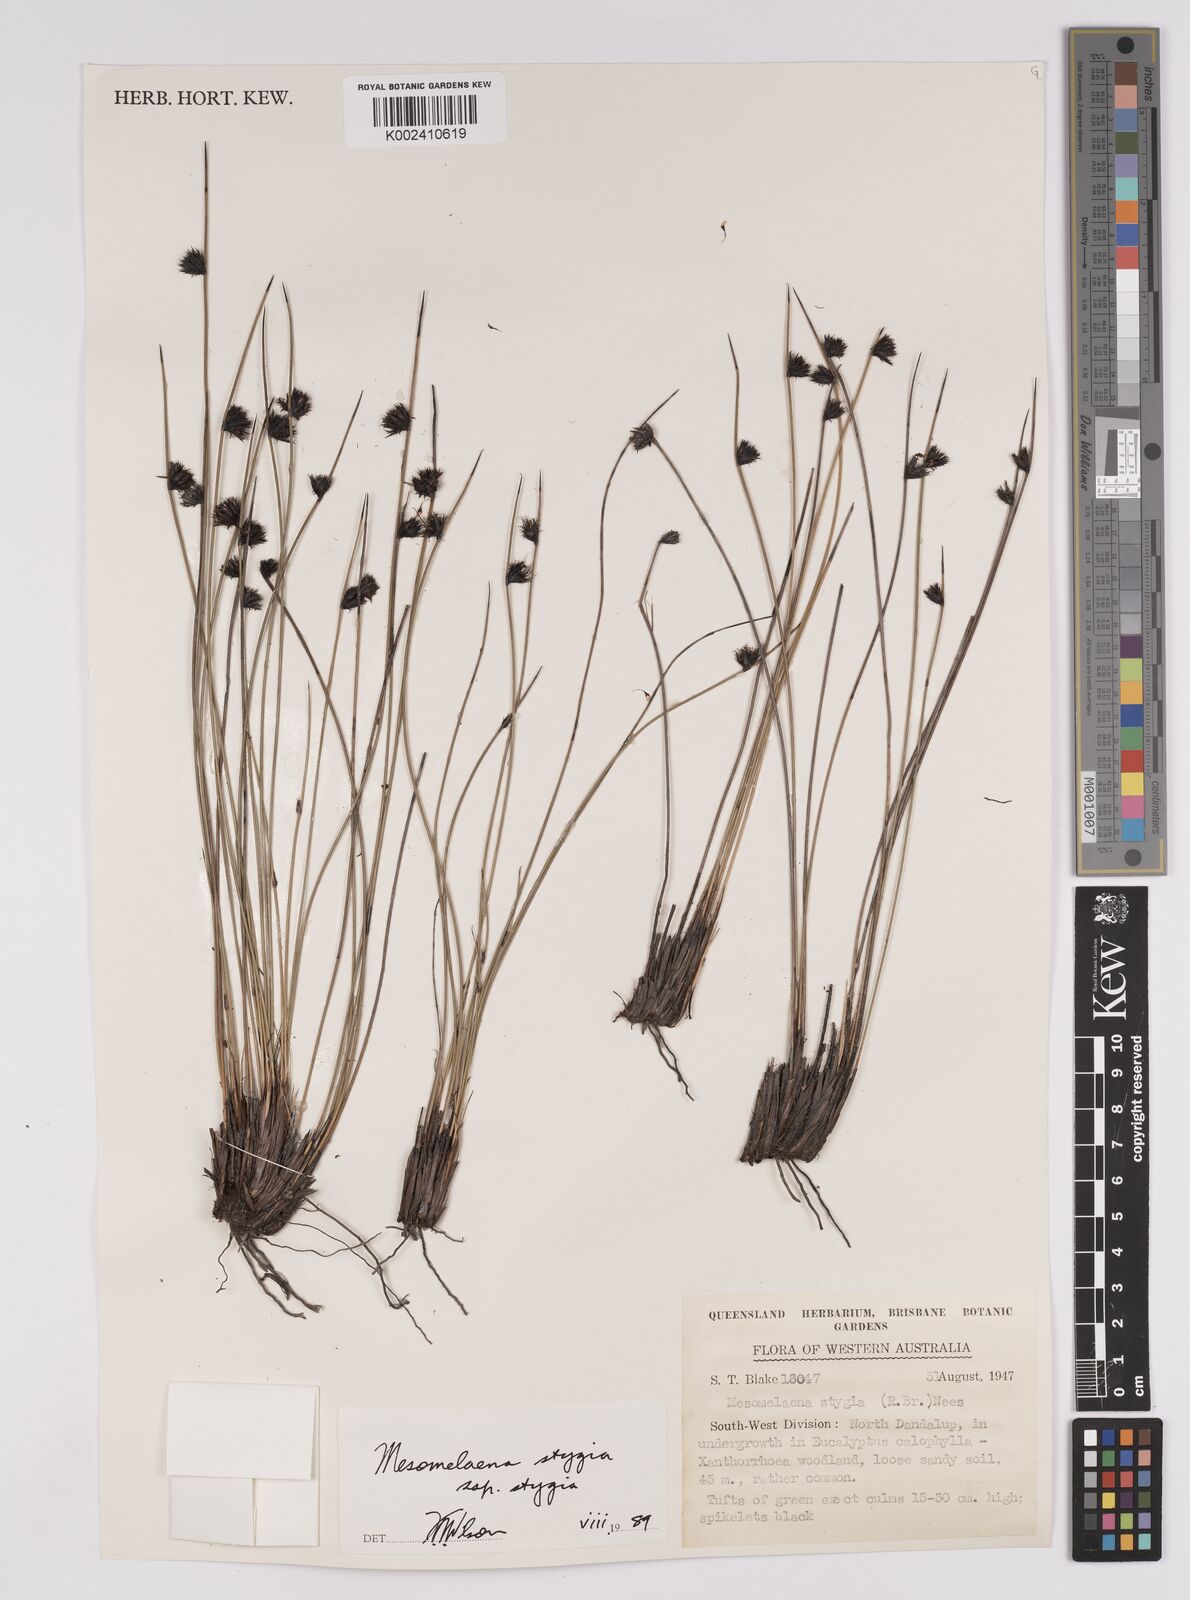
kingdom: Plantae
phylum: Tracheophyta
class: Liliopsida
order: Poales
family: Cyperaceae
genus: Mesomelaena
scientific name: Mesomelaena stygia
